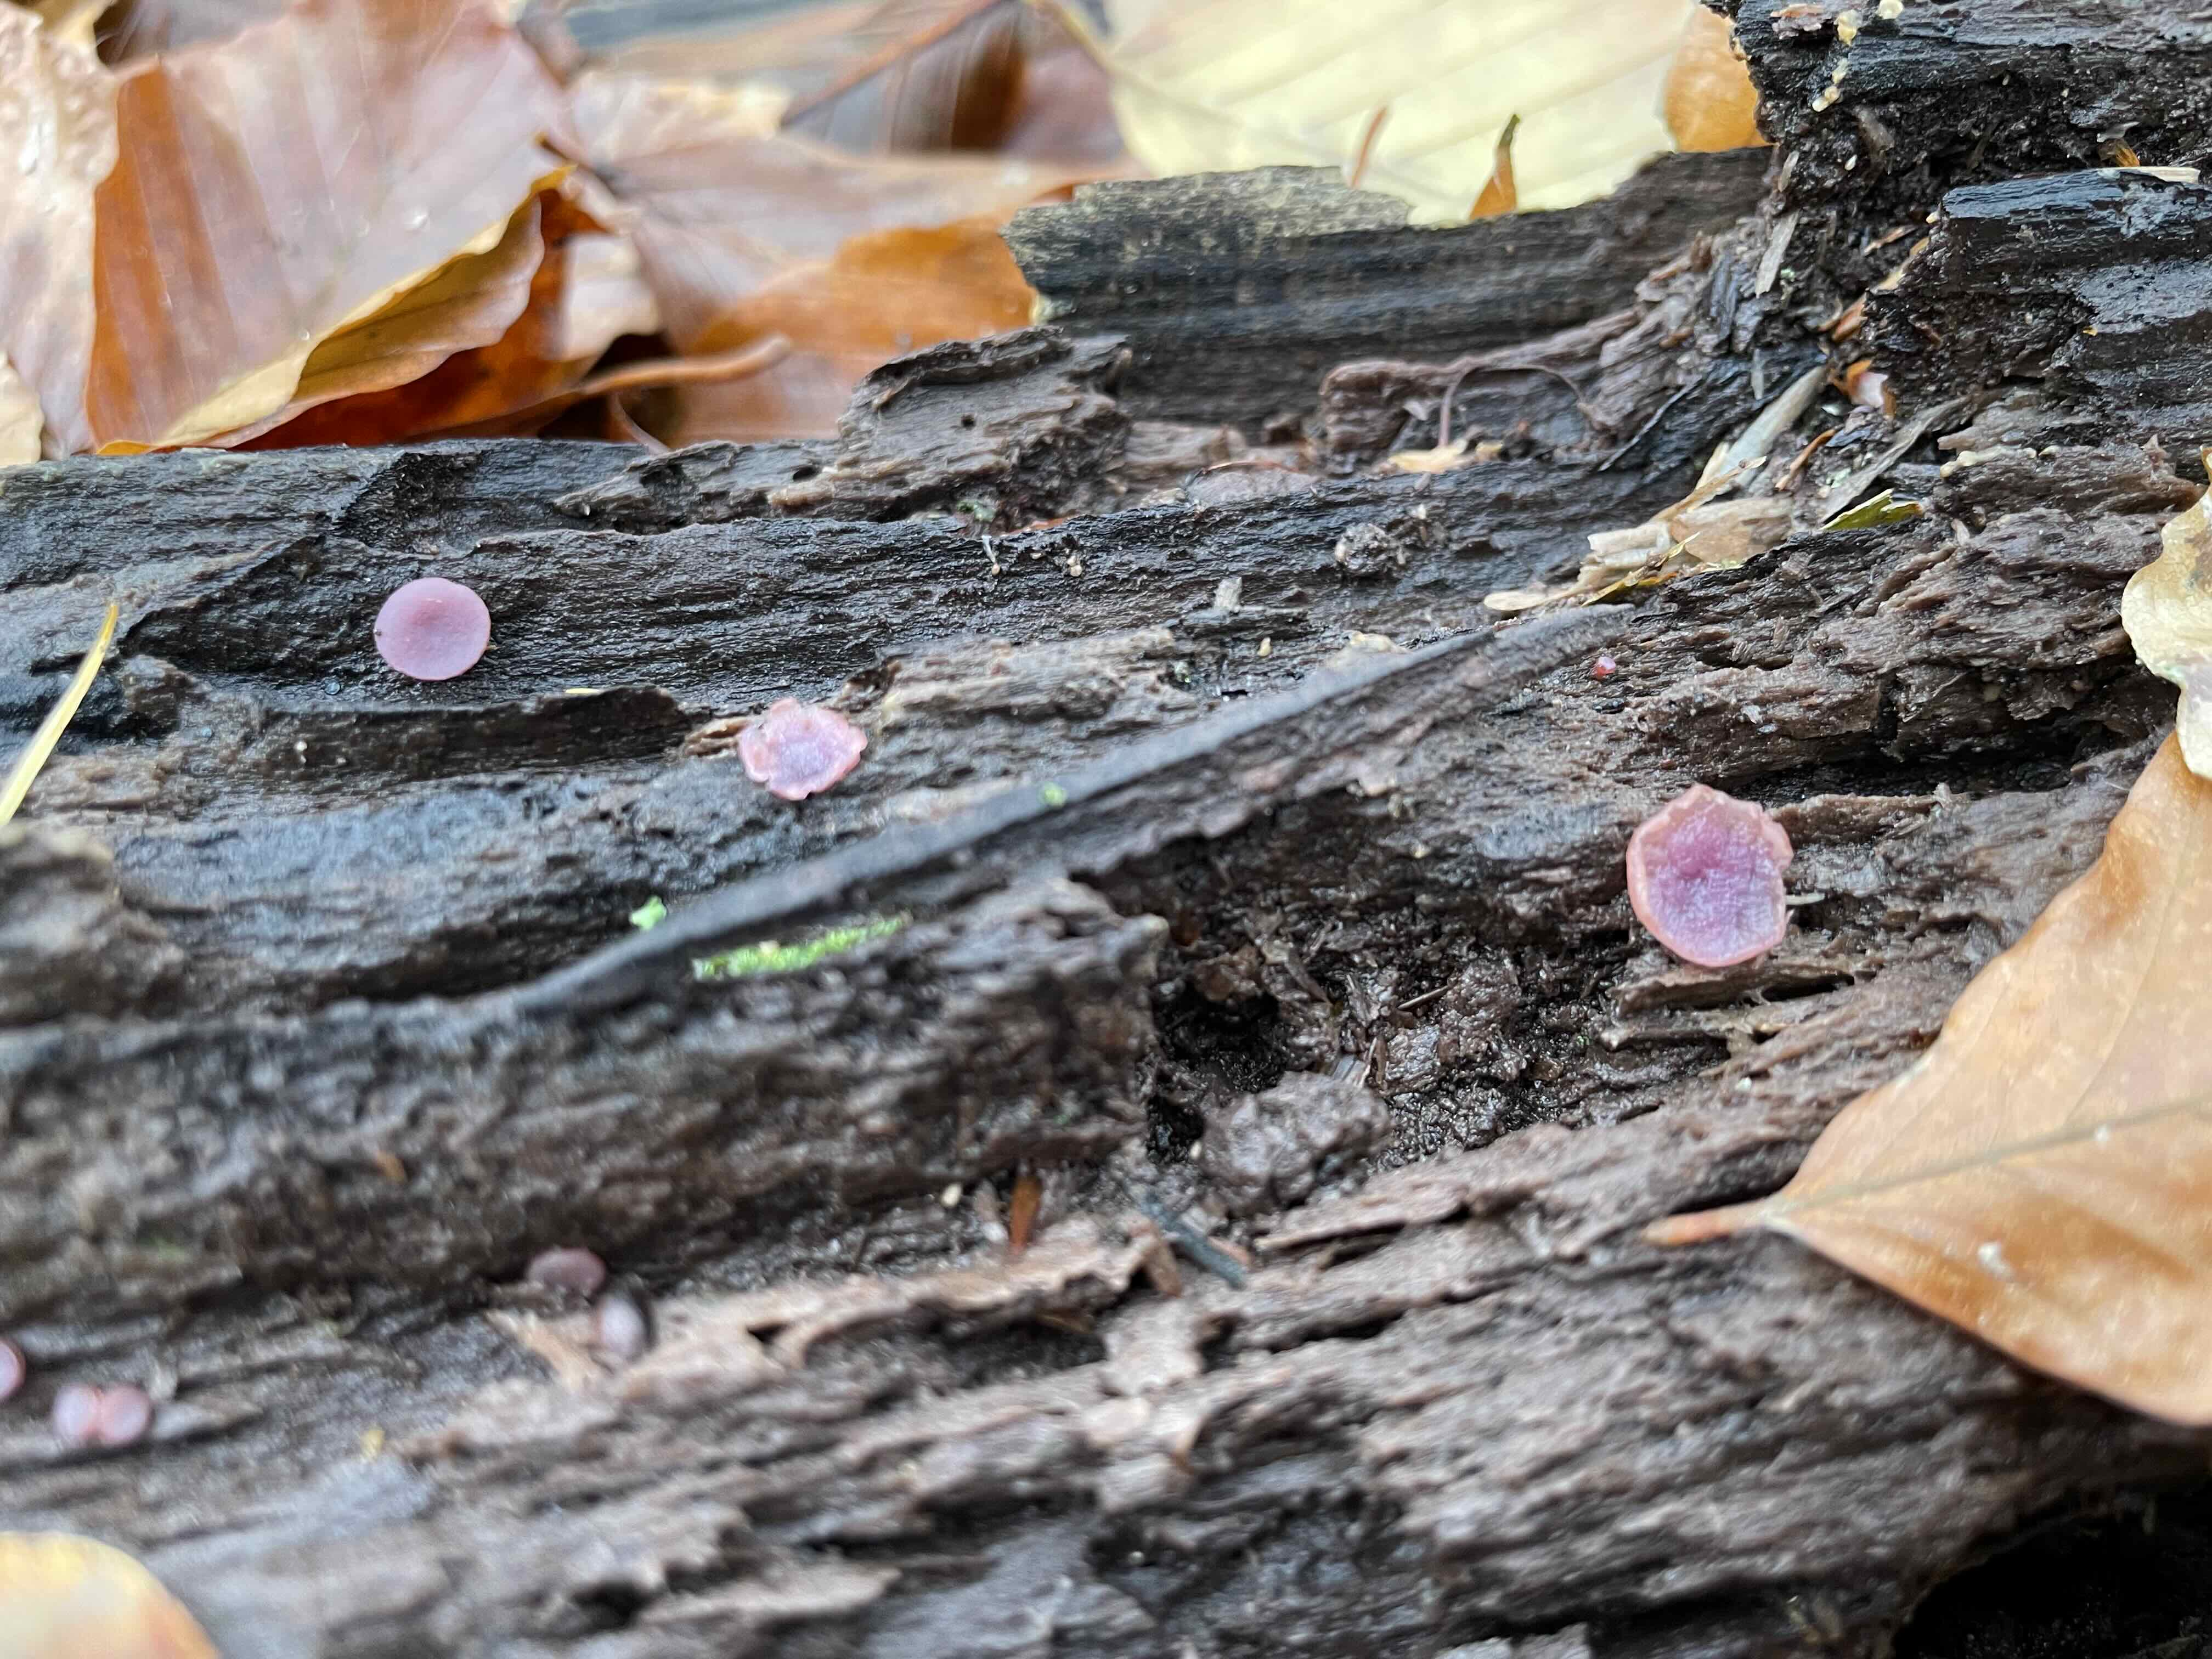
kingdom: Fungi
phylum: Ascomycota
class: Leotiomycetes
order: Helotiales
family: Gelatinodiscaceae
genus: Ascocoryne
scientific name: Ascocoryne cylichnium
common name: stor sejskive
